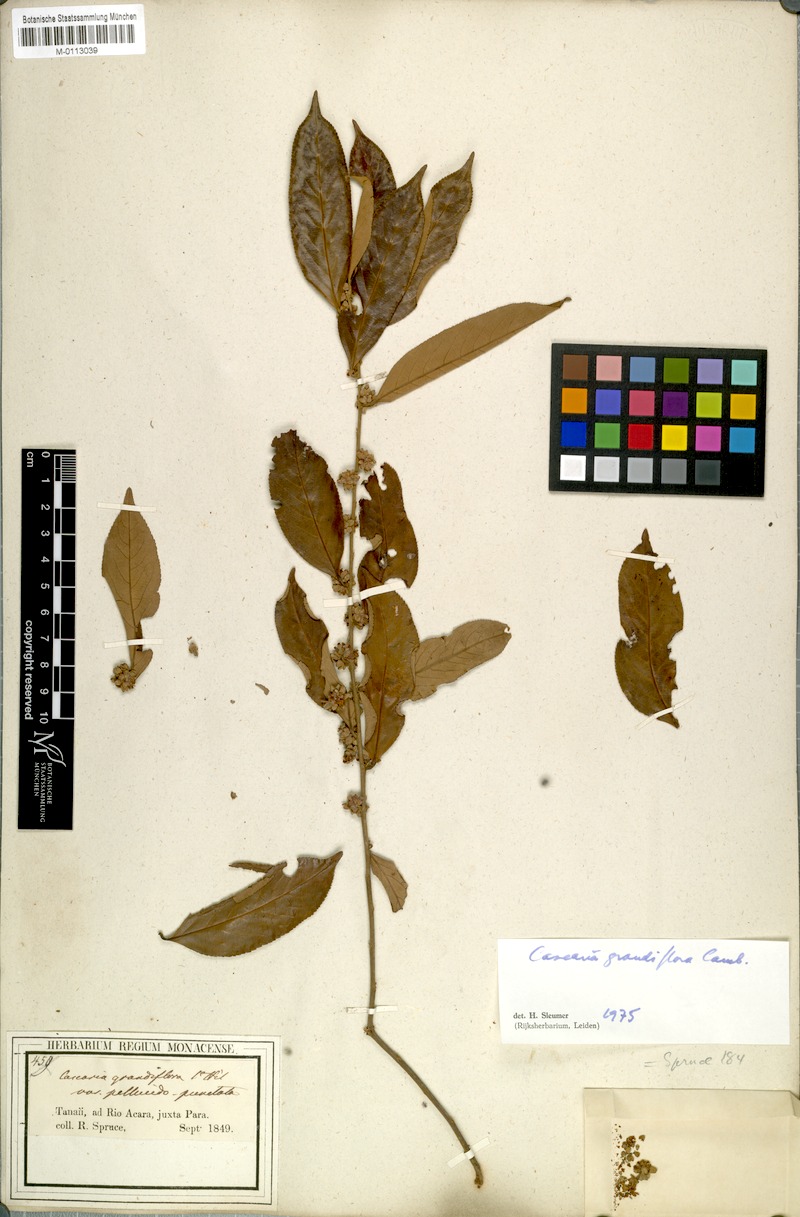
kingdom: Plantae
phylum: Tracheophyta
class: Magnoliopsida
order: Malpighiales
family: Salicaceae
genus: Casearia
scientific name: Casearia grandiflora
